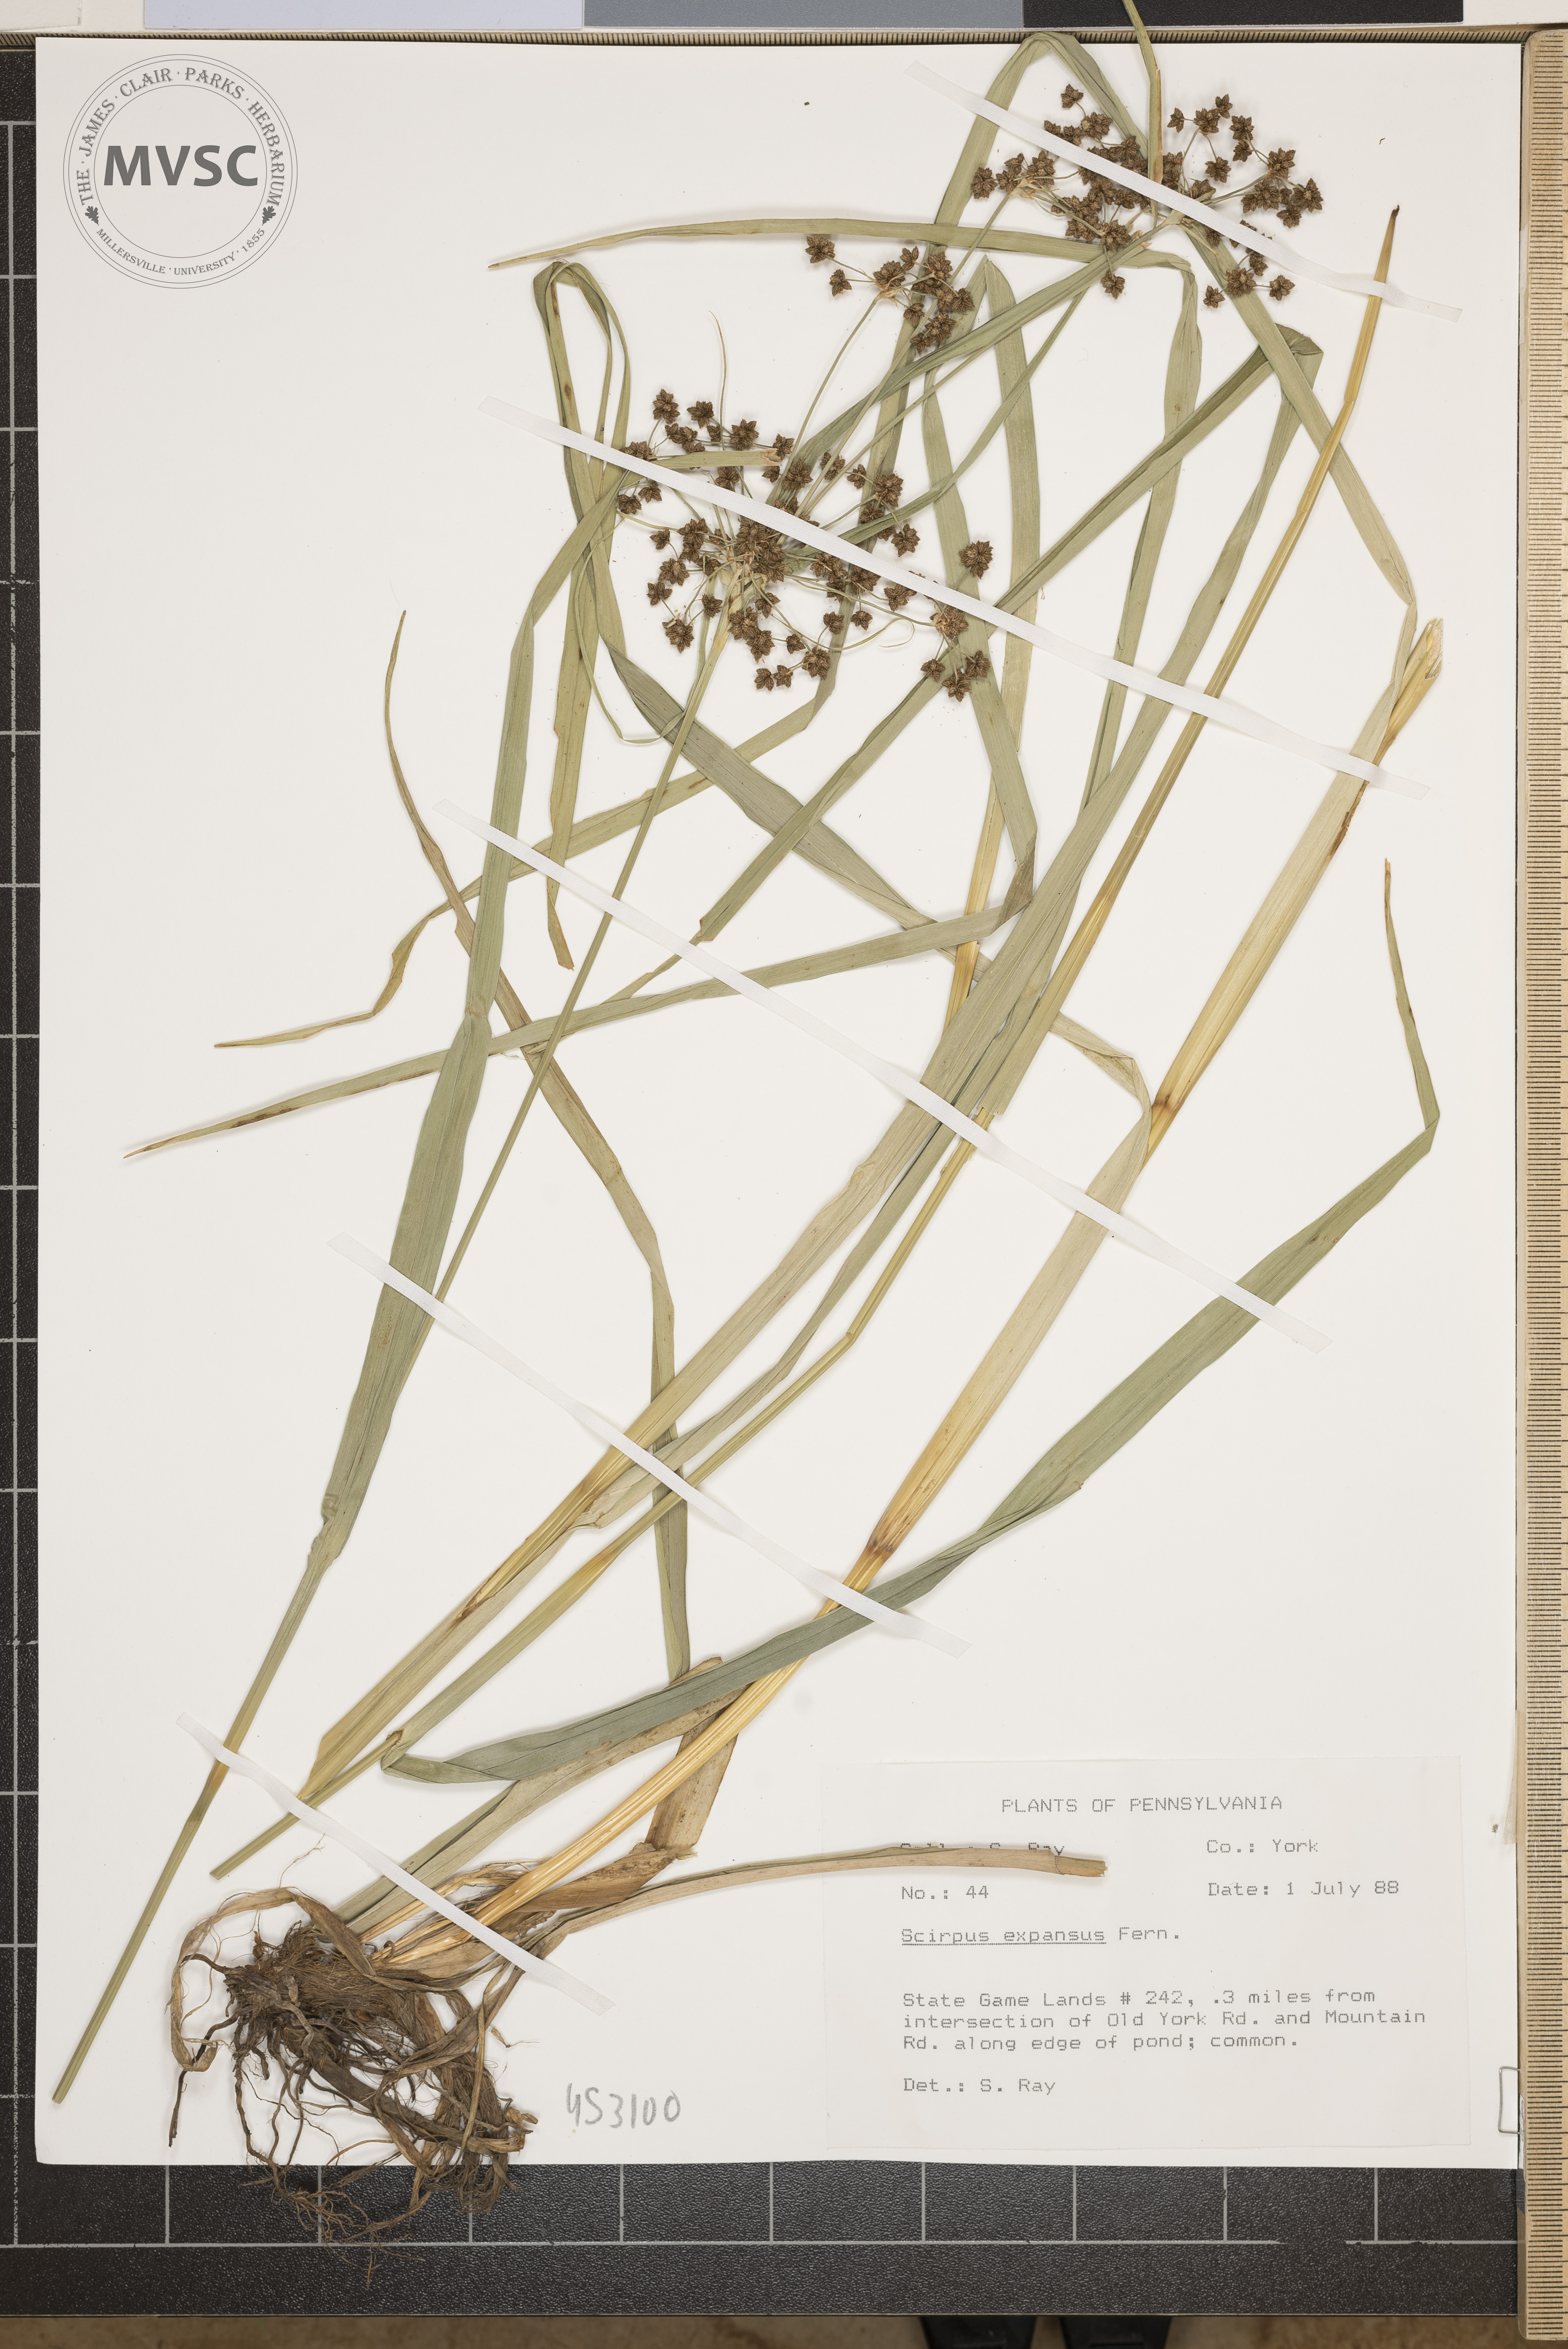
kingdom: Plantae
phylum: Tracheophyta
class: Liliopsida
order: Poales
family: Cyperaceae
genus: Scirpus
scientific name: Scirpus expansus
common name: Woodland bulrush
